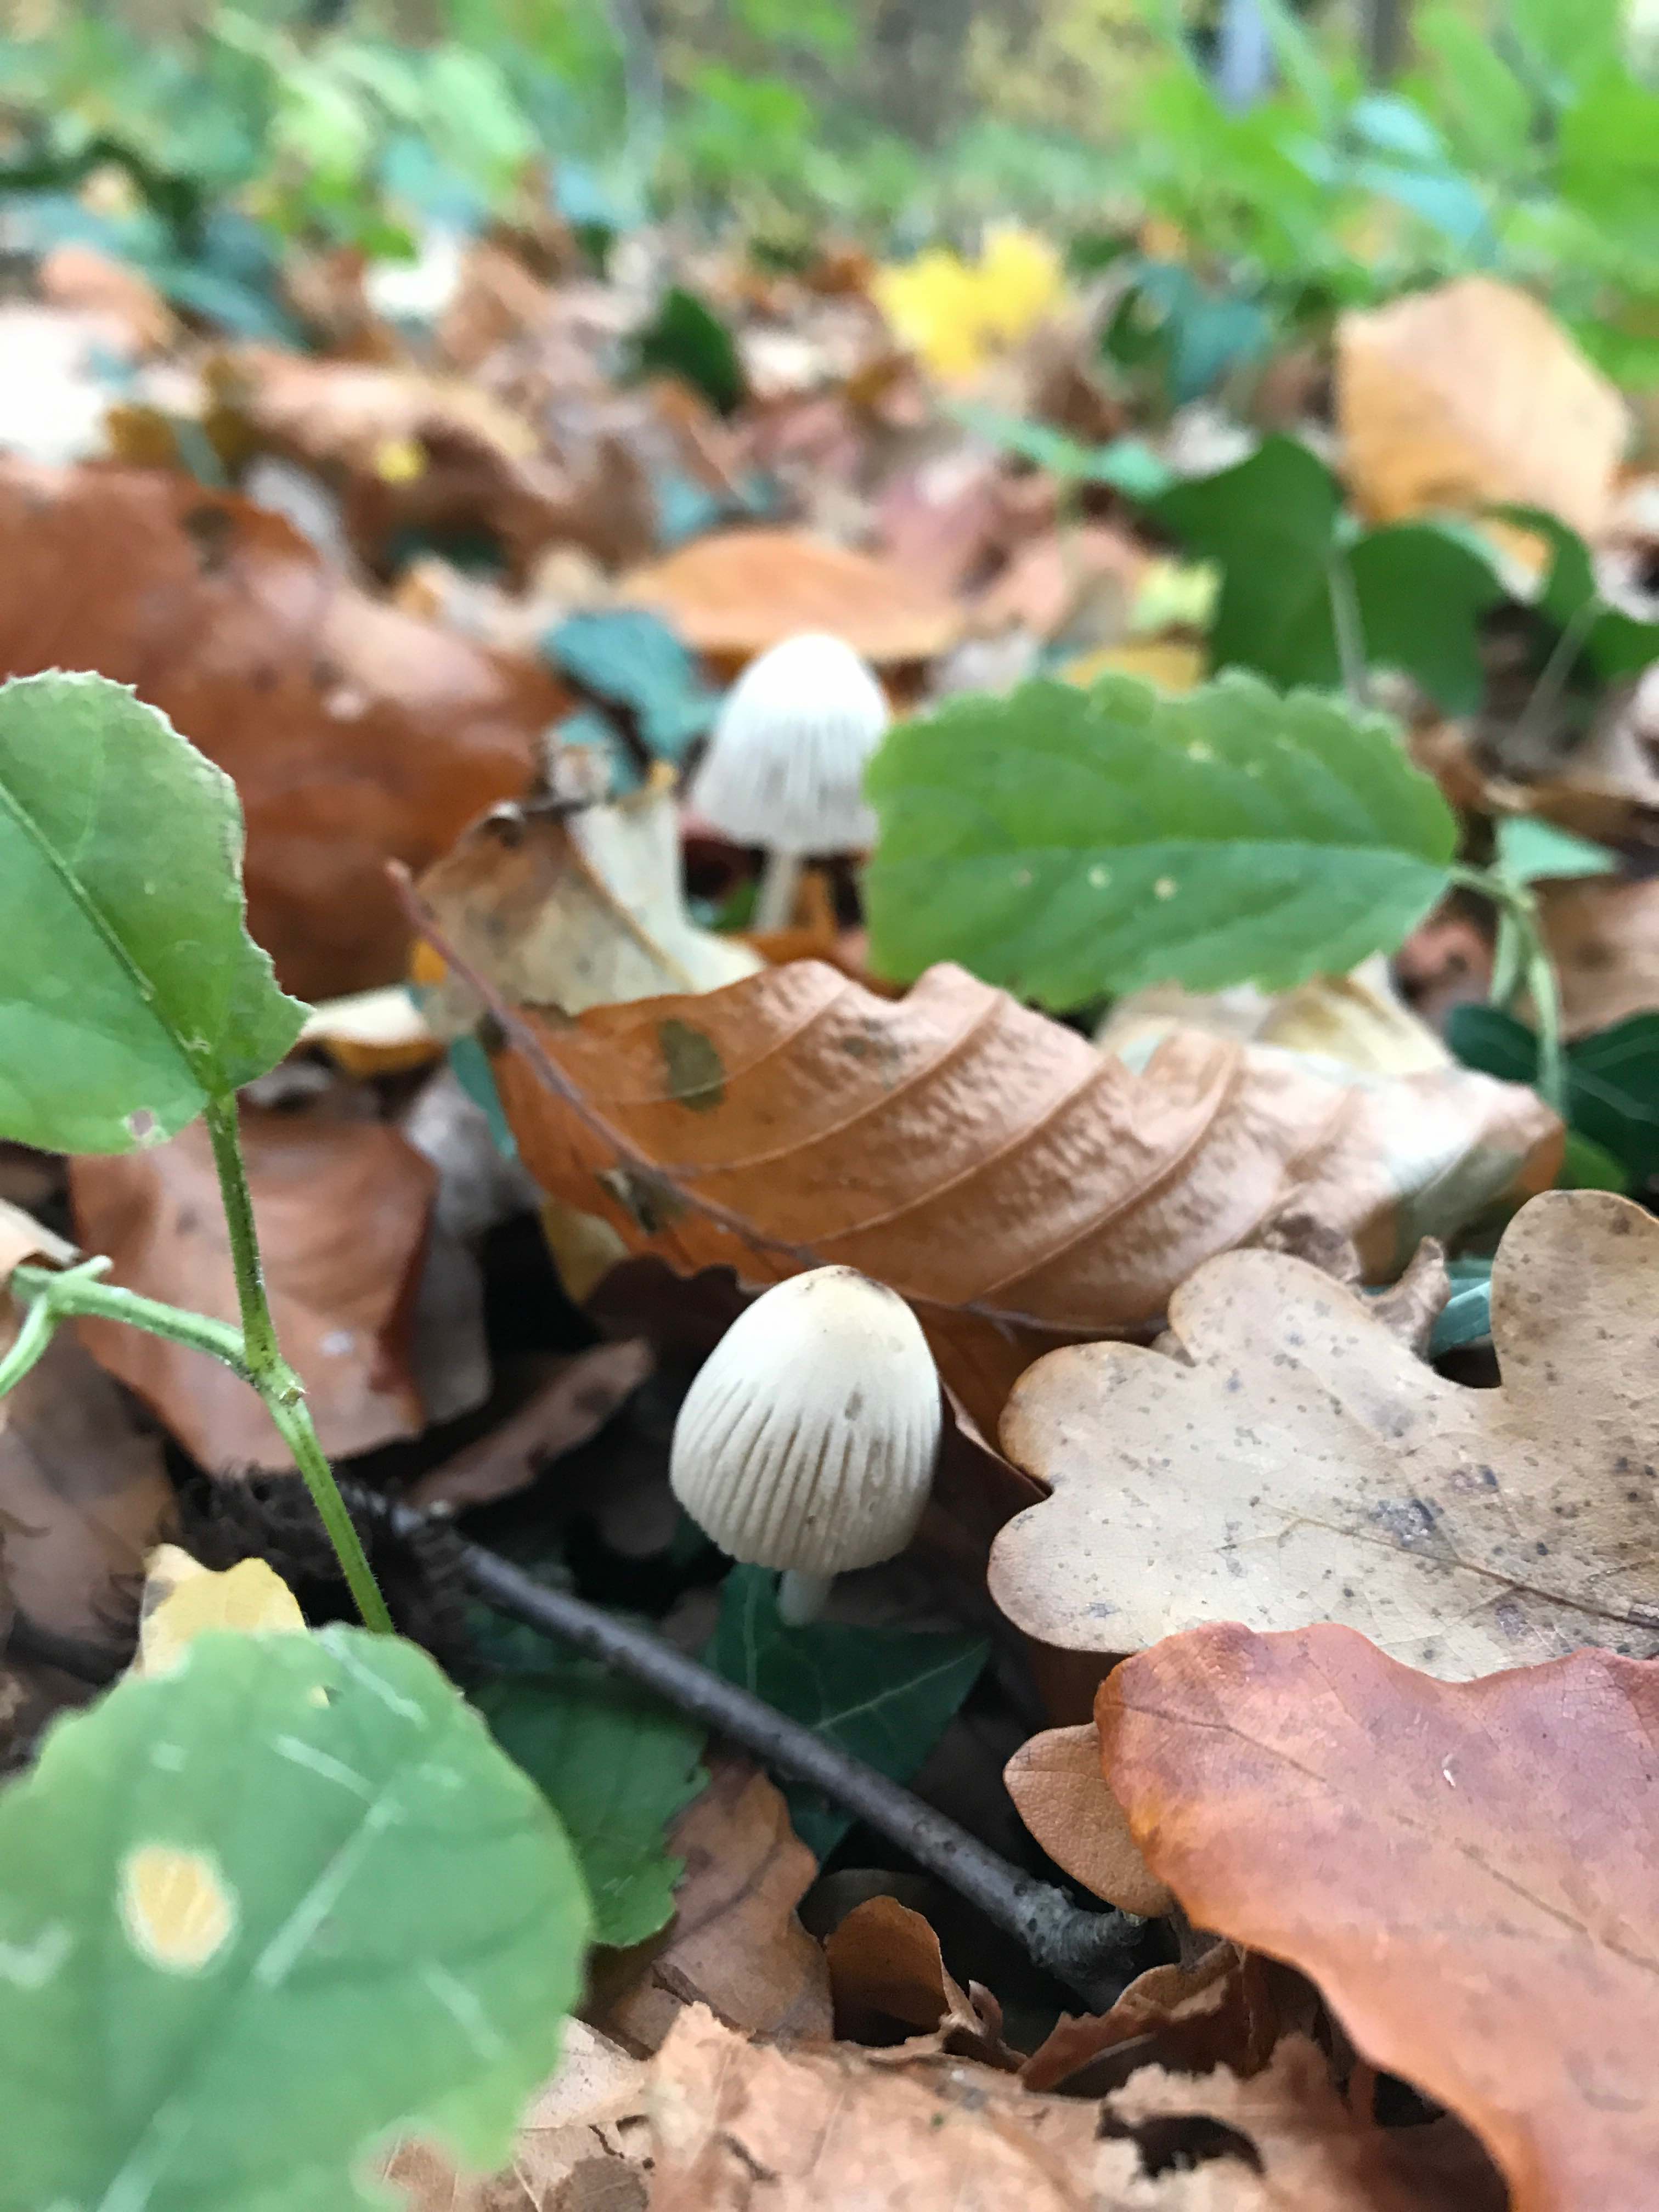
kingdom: Fungi
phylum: Basidiomycota
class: Agaricomycetes
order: Agaricales
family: Psathyrellaceae
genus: Coprinellus
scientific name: Coprinellus
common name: blækhat
